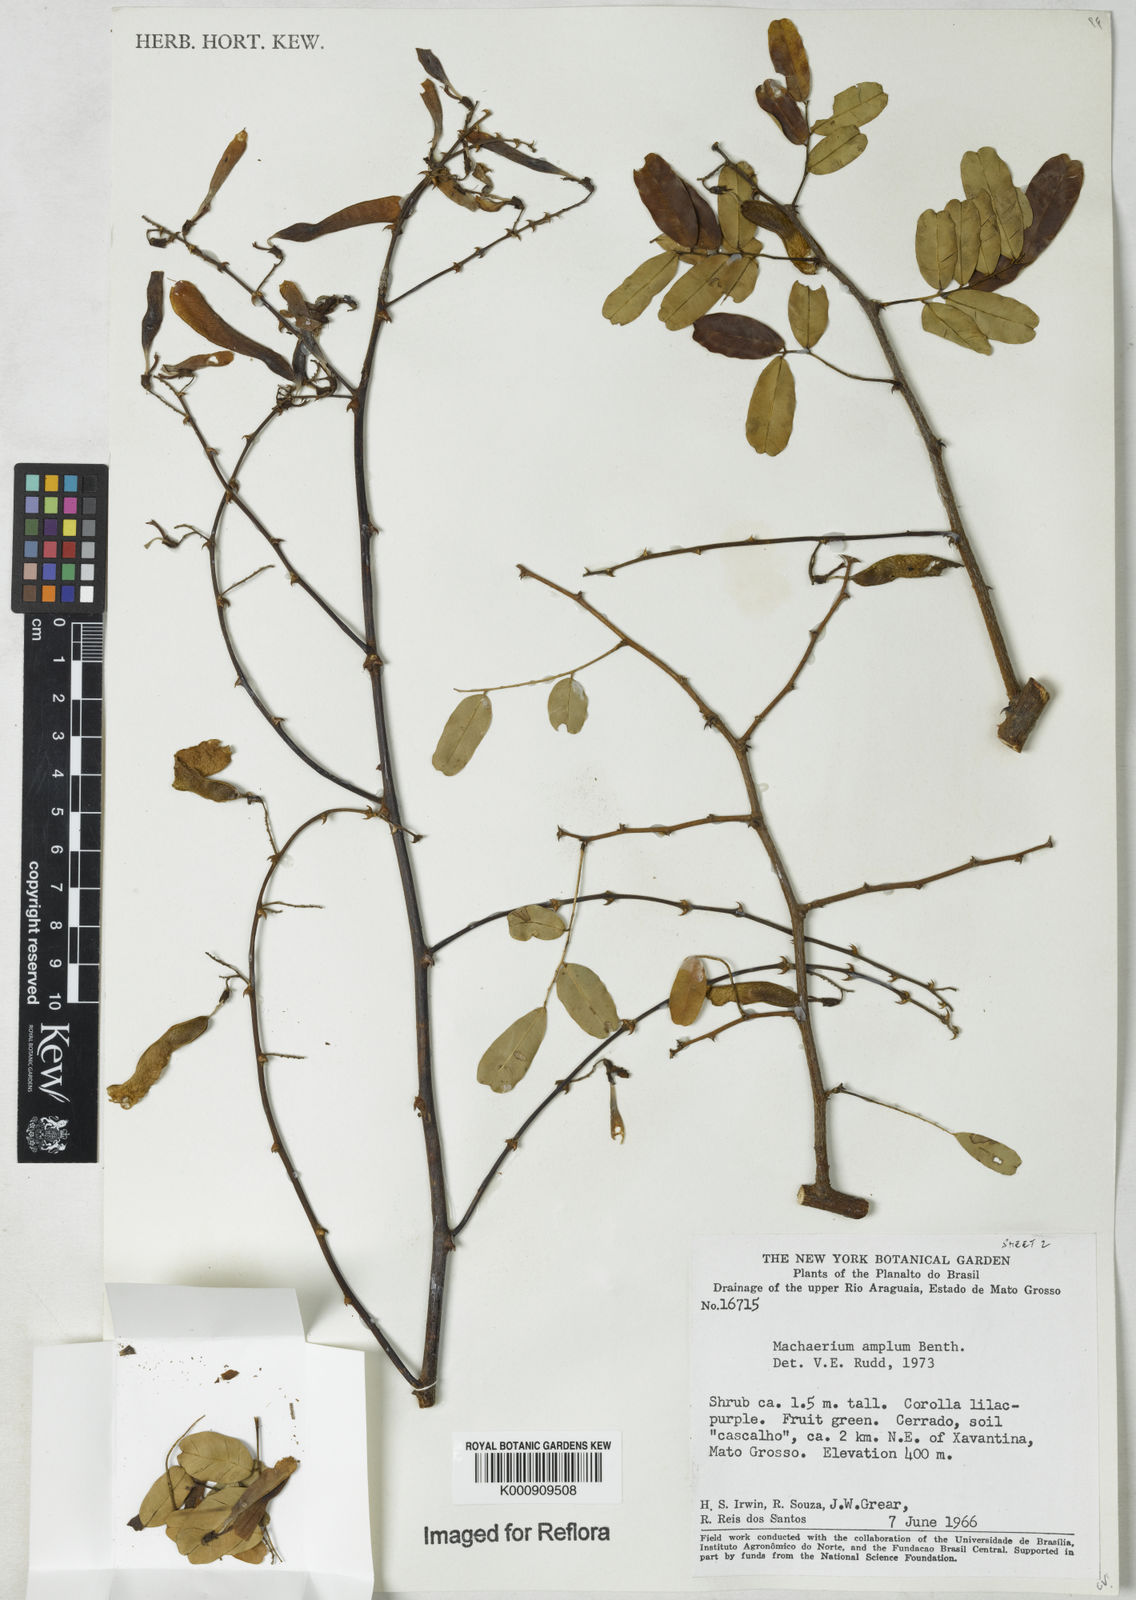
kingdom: Plantae
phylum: Tracheophyta
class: Magnoliopsida
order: Fabales
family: Fabaceae
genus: Machaerium
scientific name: Machaerium amplum
